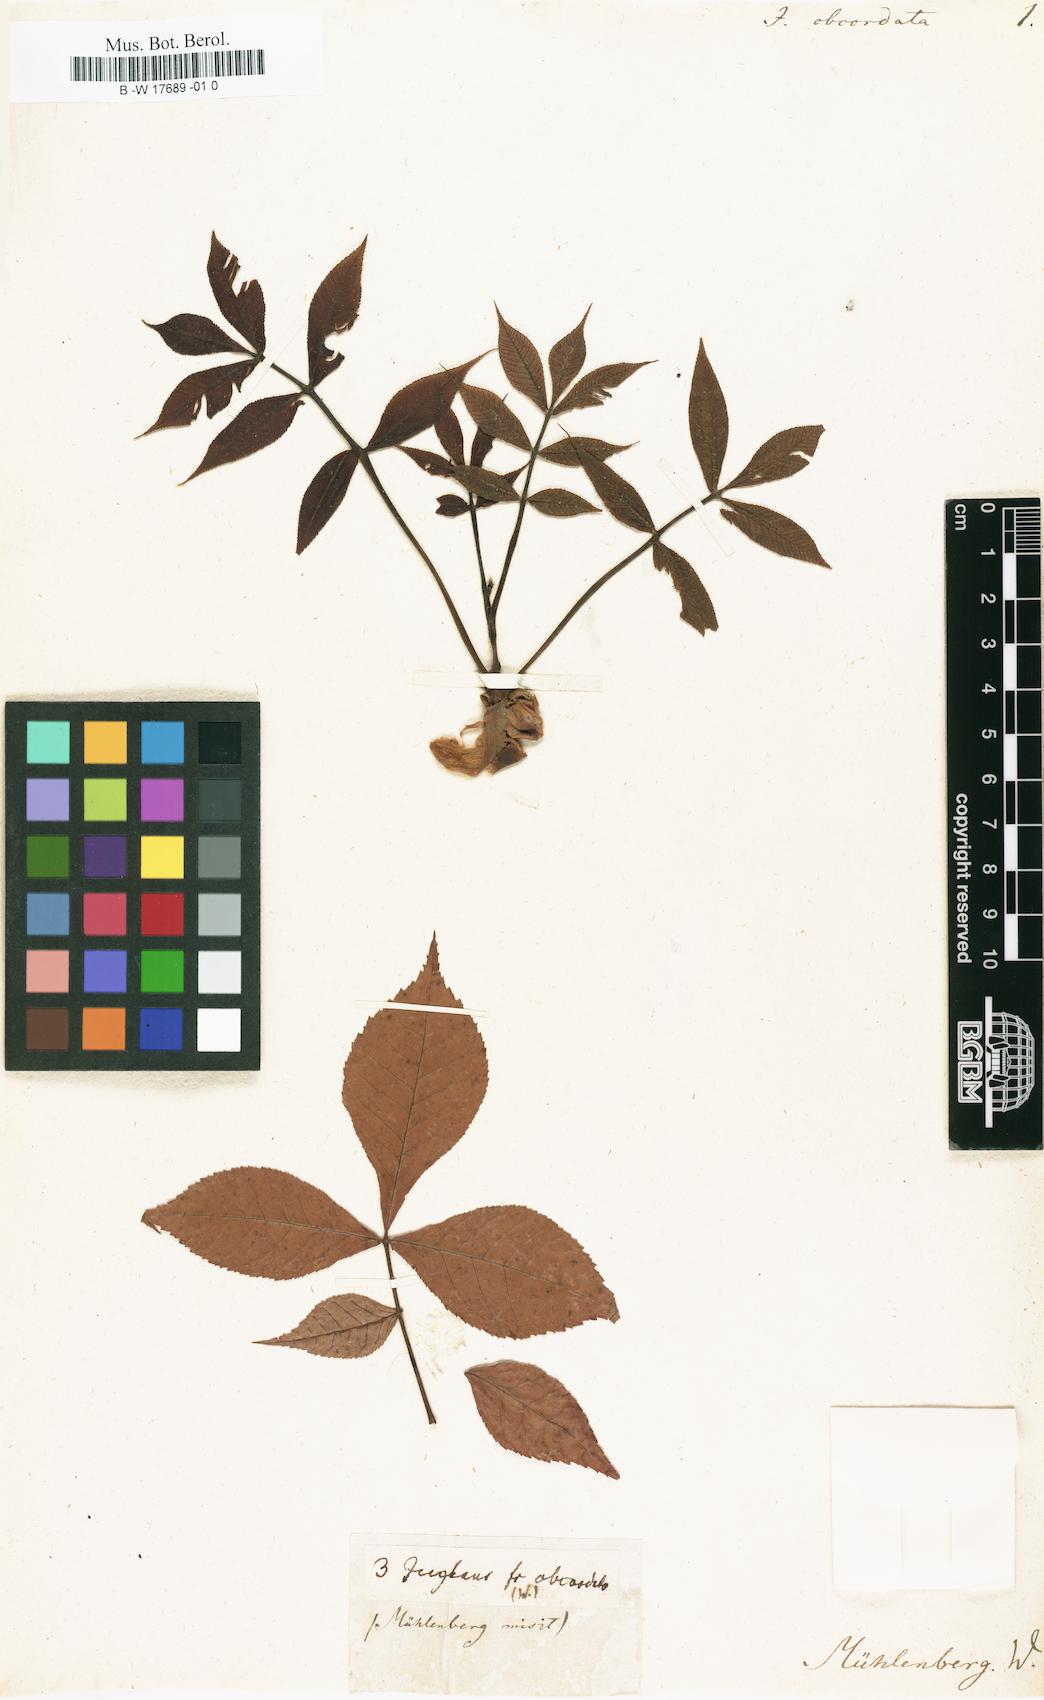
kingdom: Plantae
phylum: Tracheophyta
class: Magnoliopsida
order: Fagales
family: Juglandaceae
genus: Carya
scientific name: Carya ovalis
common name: False shagbark
